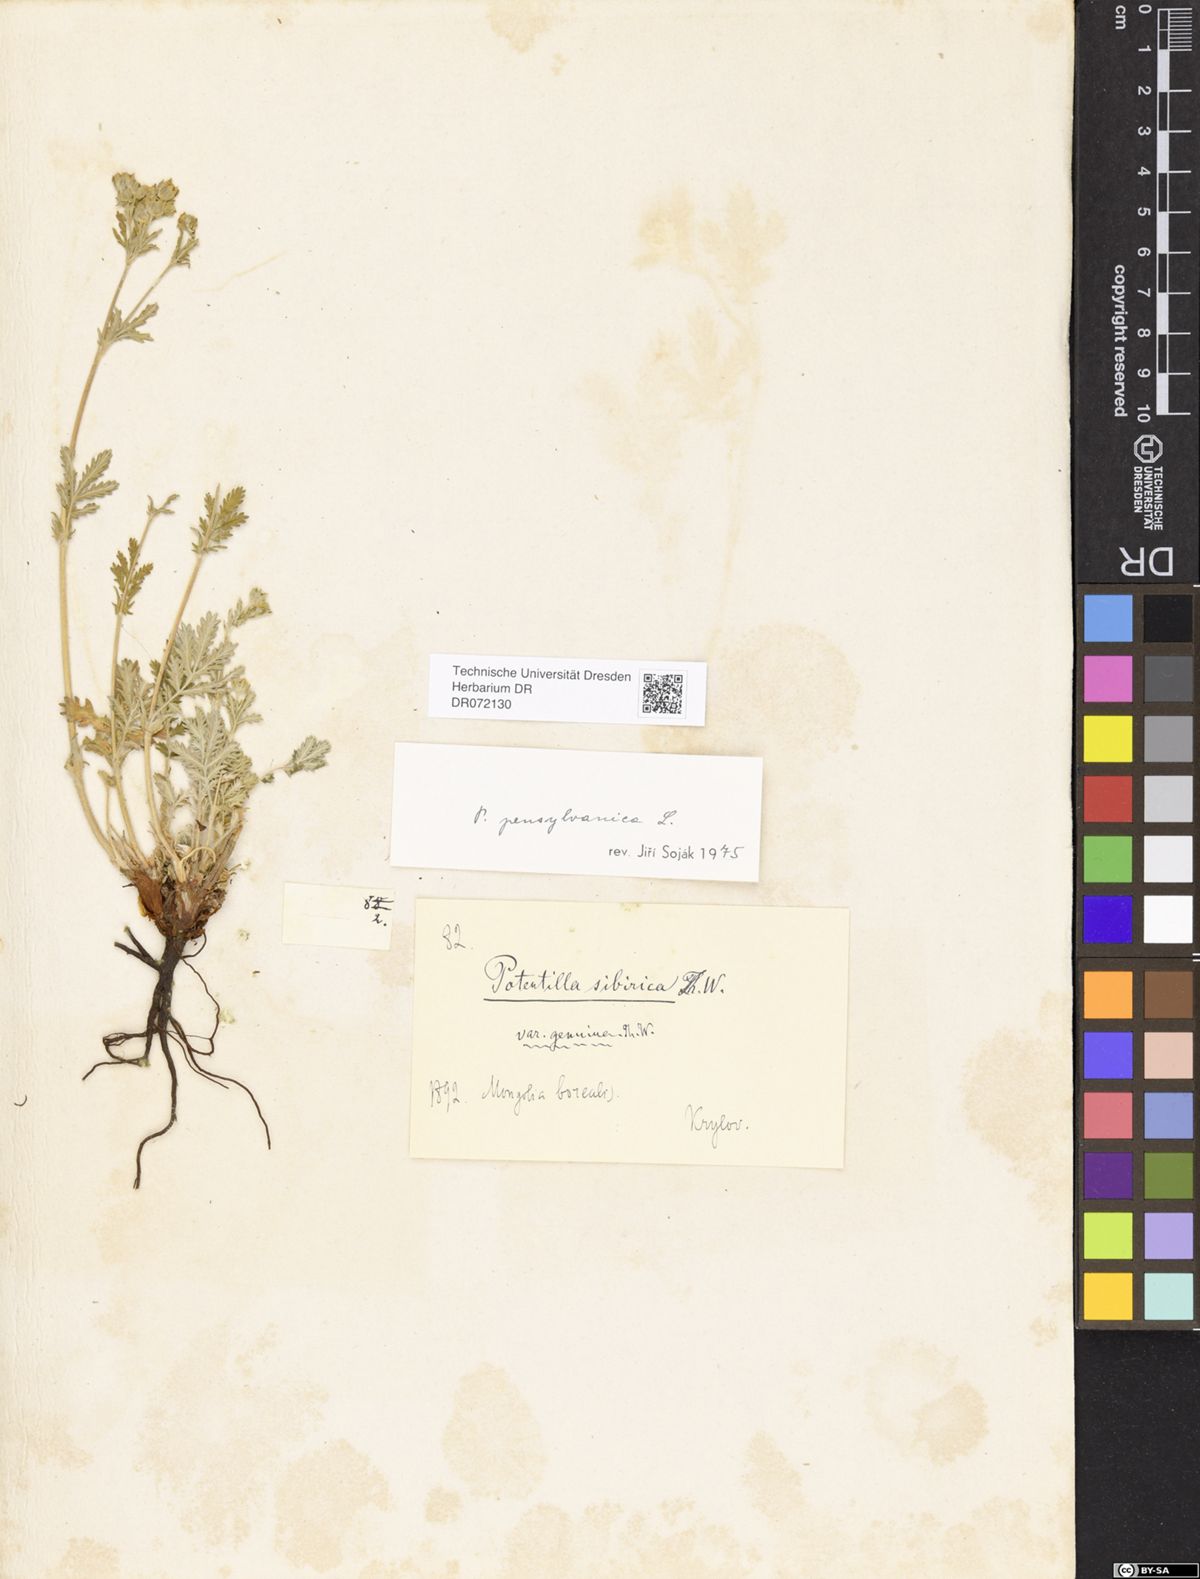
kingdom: Plantae
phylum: Tracheophyta
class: Magnoliopsida
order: Rosales
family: Rosaceae
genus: Potentilla
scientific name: Potentilla pensylvanica
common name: Pennsylvania cinquefoil
